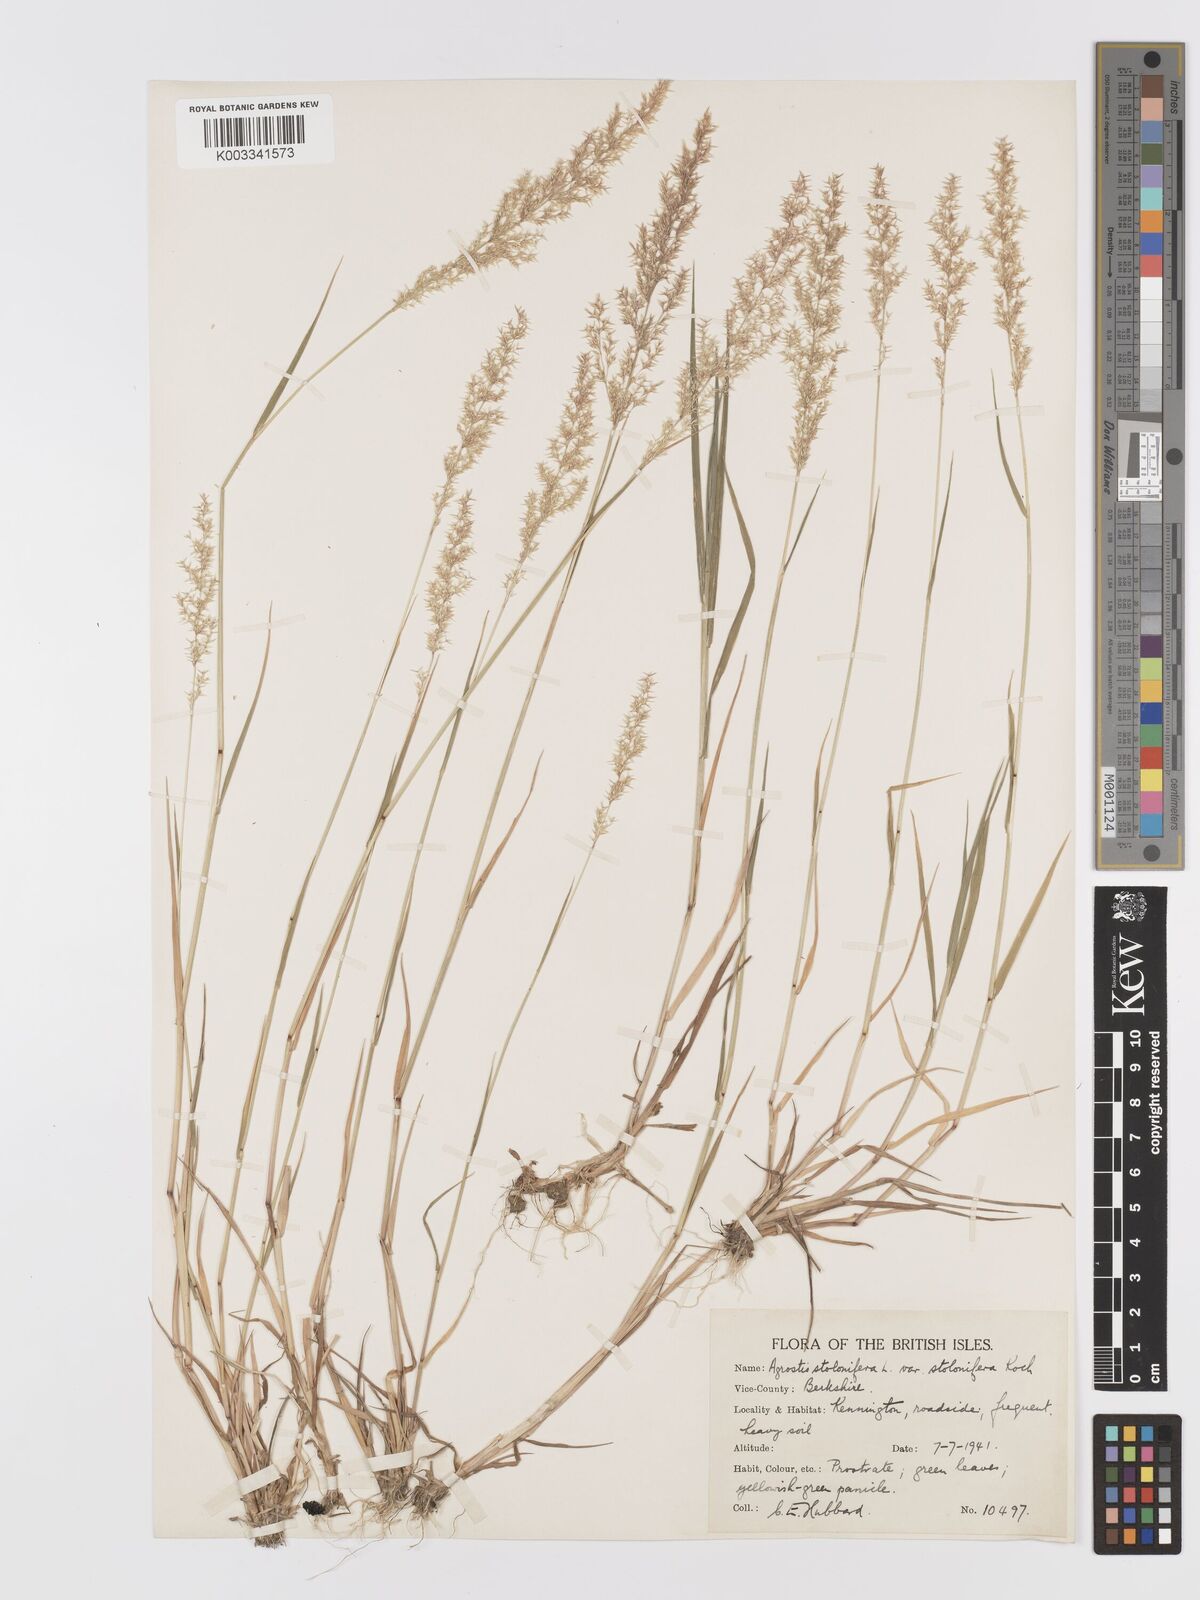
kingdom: Plantae
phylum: Tracheophyta
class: Liliopsida
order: Poales
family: Poaceae
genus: Agrostis
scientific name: Agrostis stolonifera
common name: Creeping bentgrass
